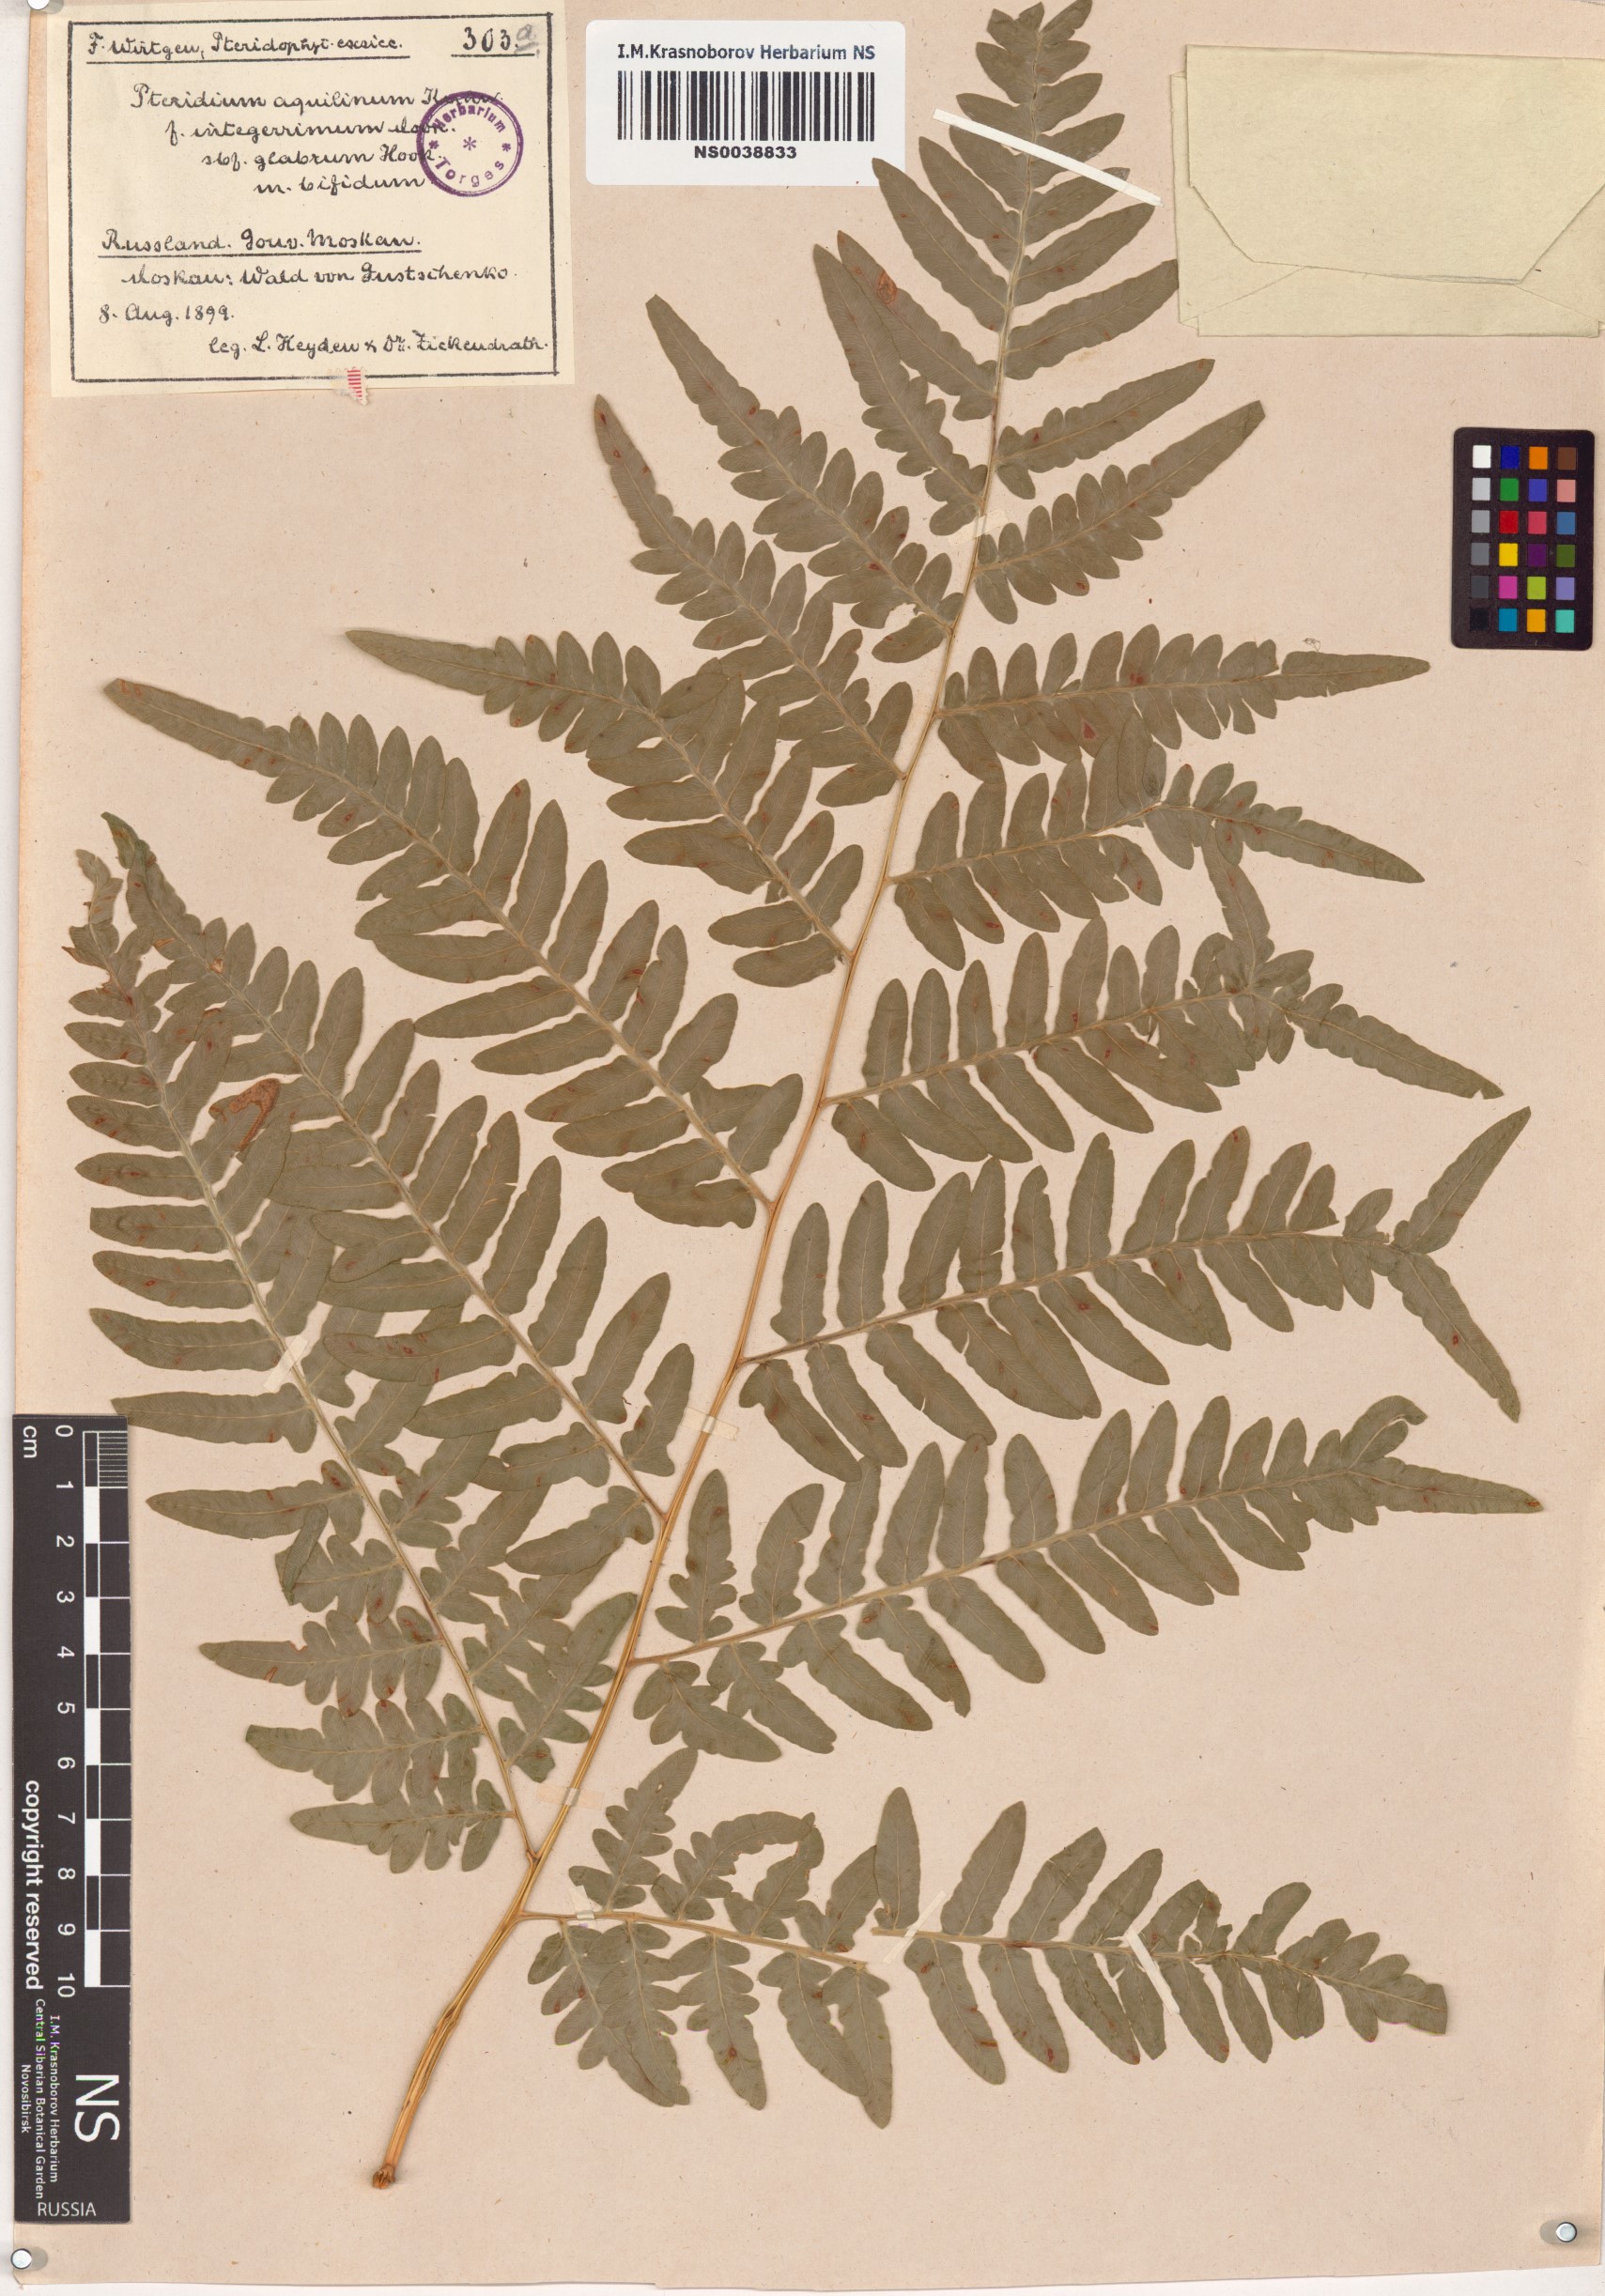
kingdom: Plantae
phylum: Tracheophyta
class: Polypodiopsida
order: Polypodiales
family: Dennstaedtiaceae
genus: Pteridium
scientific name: Pteridium aquilinum
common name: Bracken
